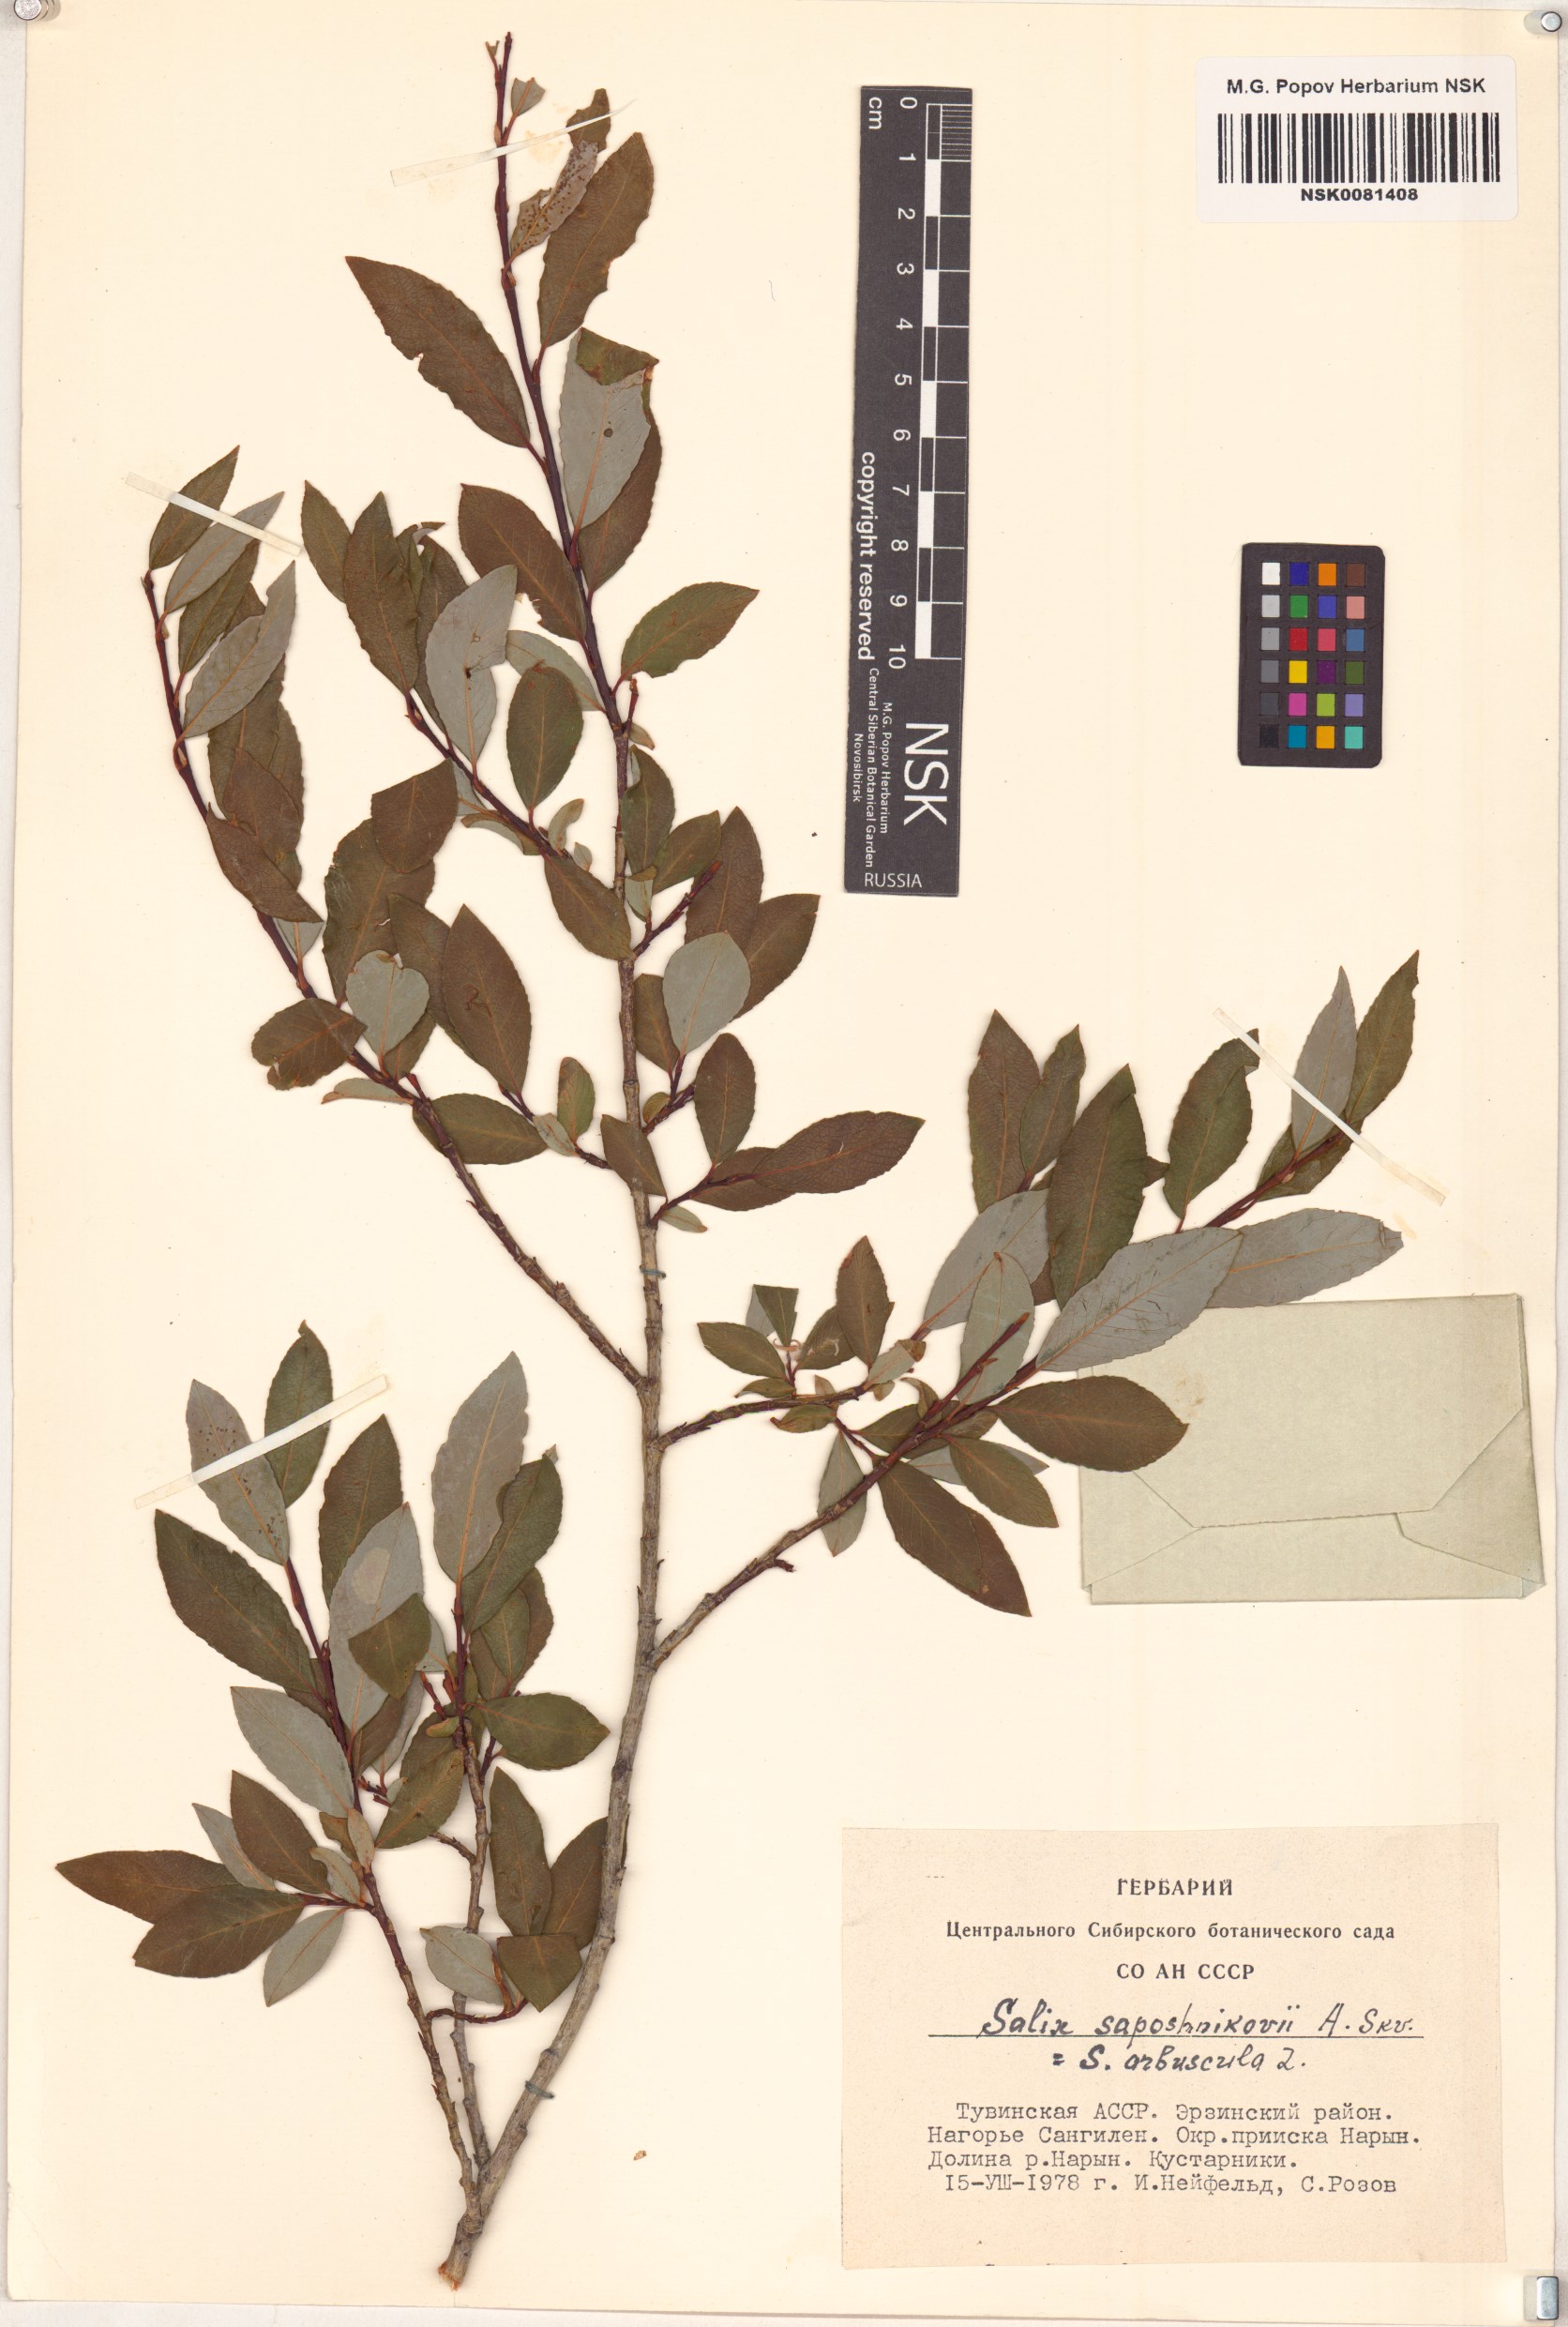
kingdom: Plantae
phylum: Tracheophyta
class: Magnoliopsida
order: Malpighiales
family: Salicaceae
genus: Salix
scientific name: Salix saposhnikovii
